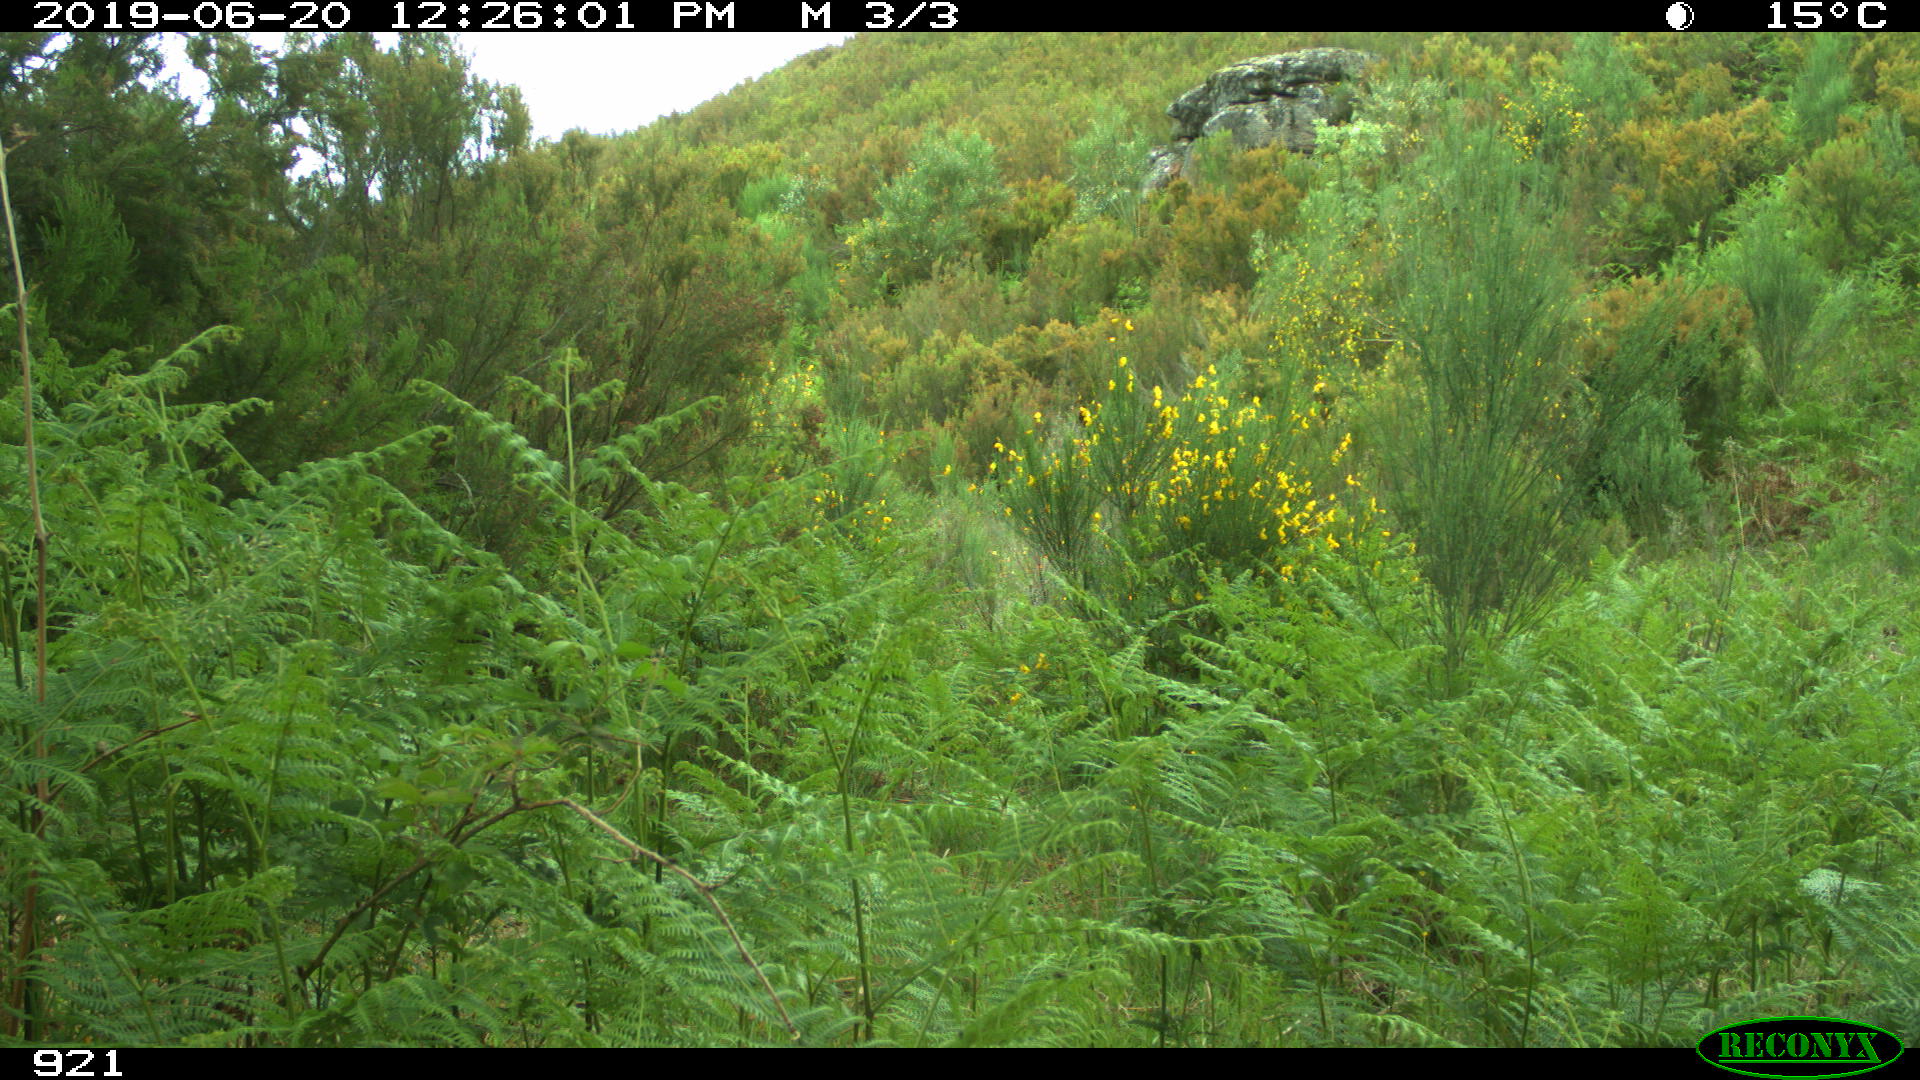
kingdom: Animalia
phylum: Chordata
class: Mammalia
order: Artiodactyla
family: Cervidae
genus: Capreolus
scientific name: Capreolus capreolus
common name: Western roe deer
